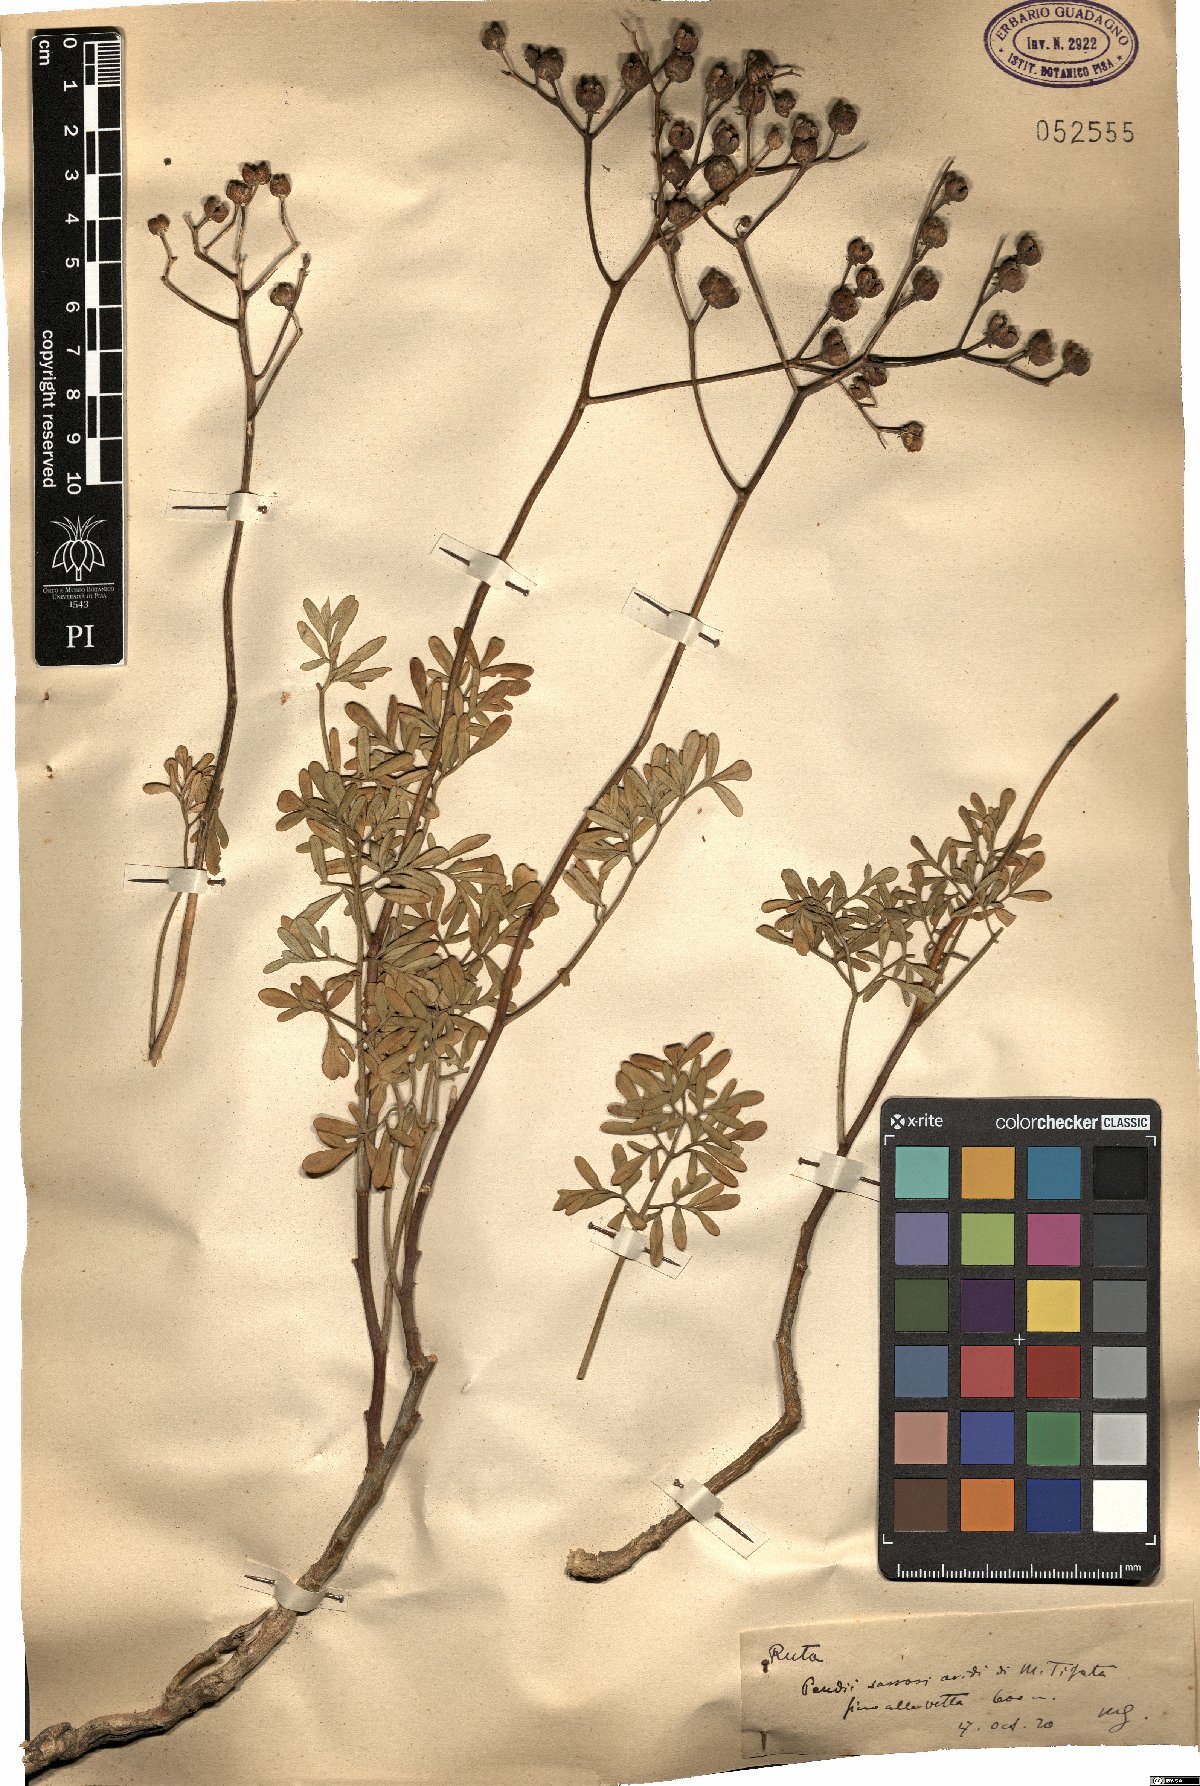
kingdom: Plantae
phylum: Tracheophyta
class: Magnoliopsida
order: Sapindales
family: Rutaceae
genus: Ruta
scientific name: Ruta
